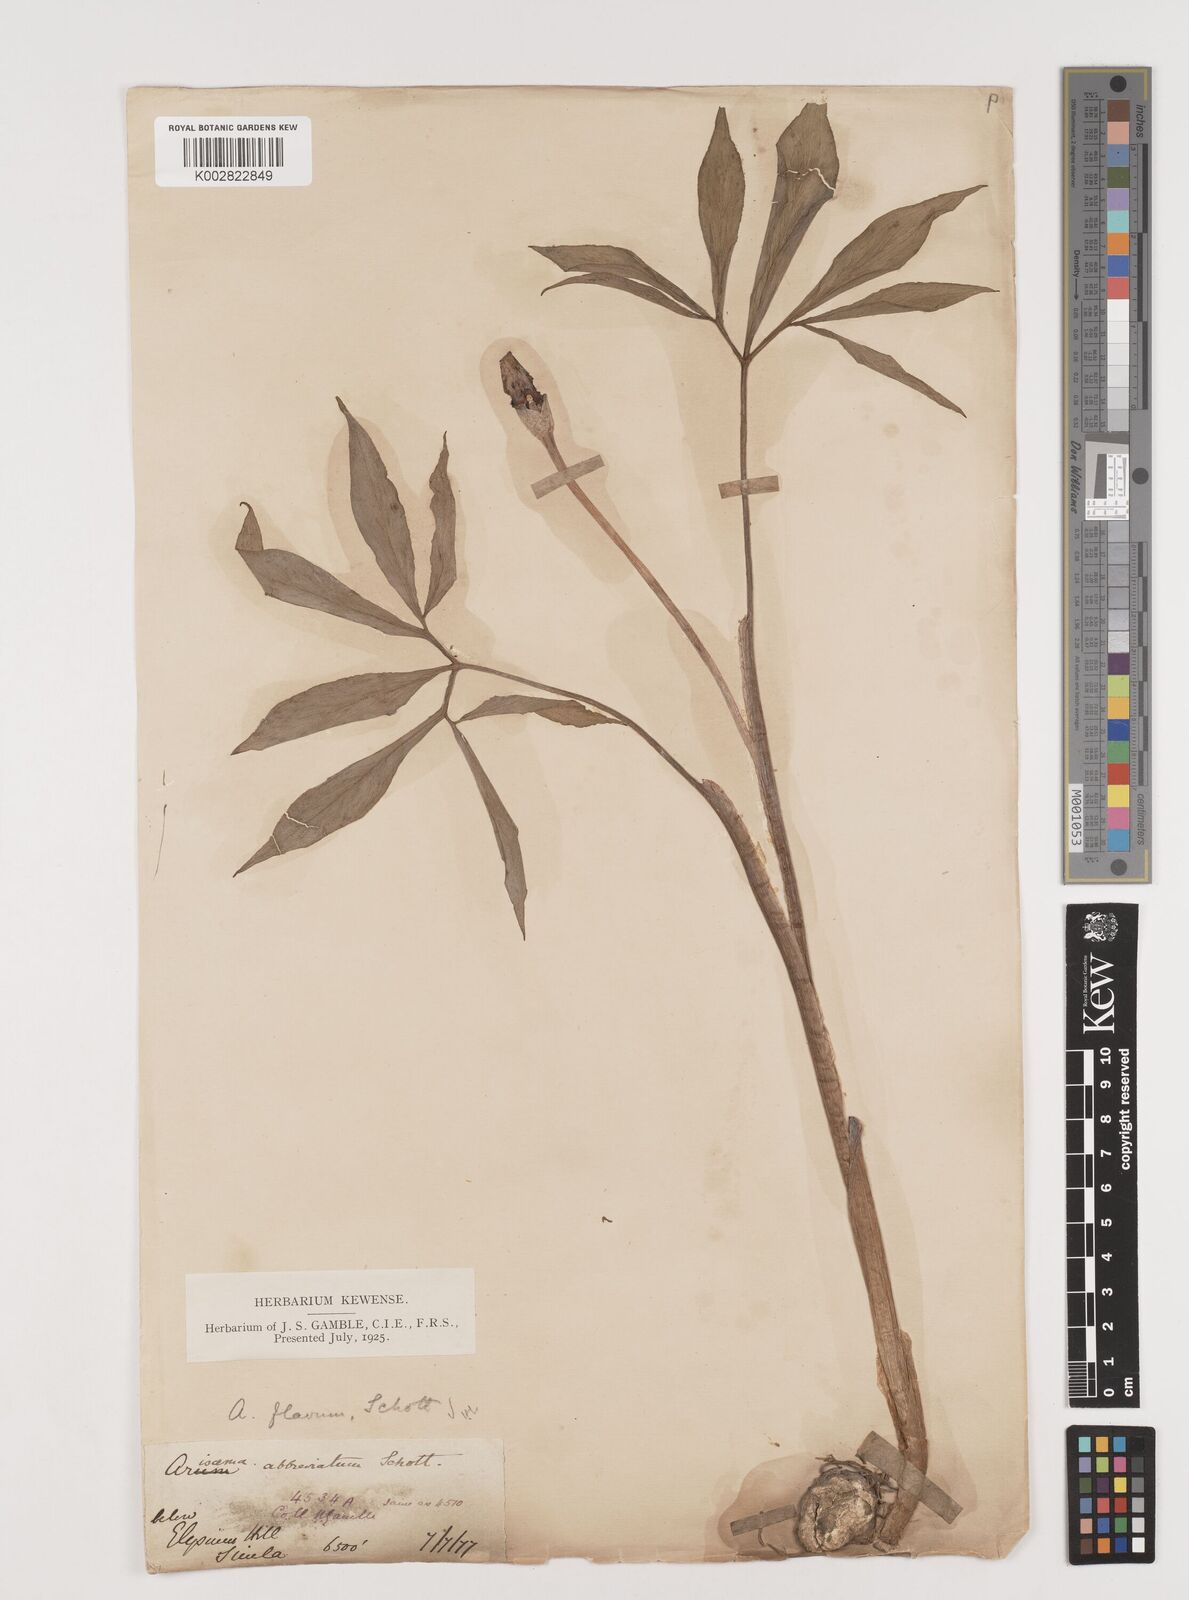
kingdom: Plantae
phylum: Tracheophyta
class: Liliopsida
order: Alismatales
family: Araceae
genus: Arisaema
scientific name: Arisaema flavum
